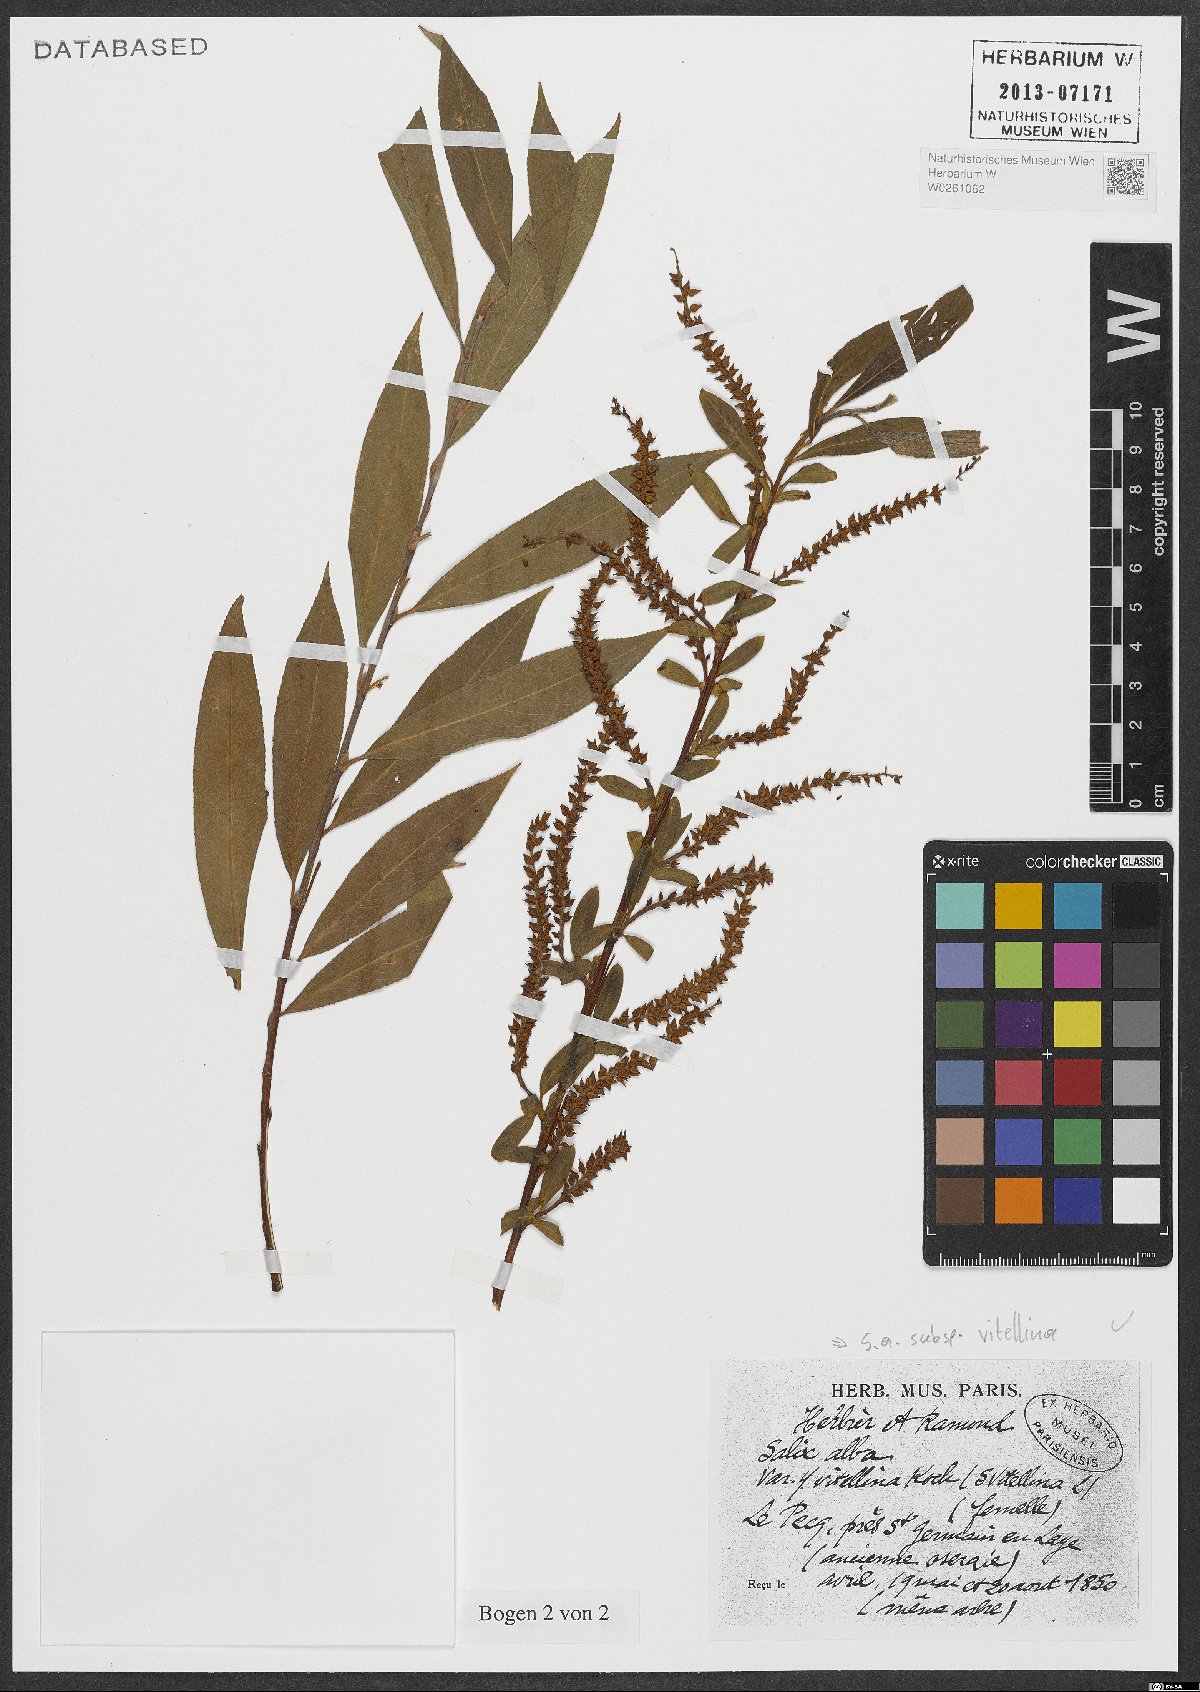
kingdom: Plantae
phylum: Tracheophyta
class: Magnoliopsida
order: Malpighiales
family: Salicaceae
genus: Salix
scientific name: Salix alba
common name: White willow
